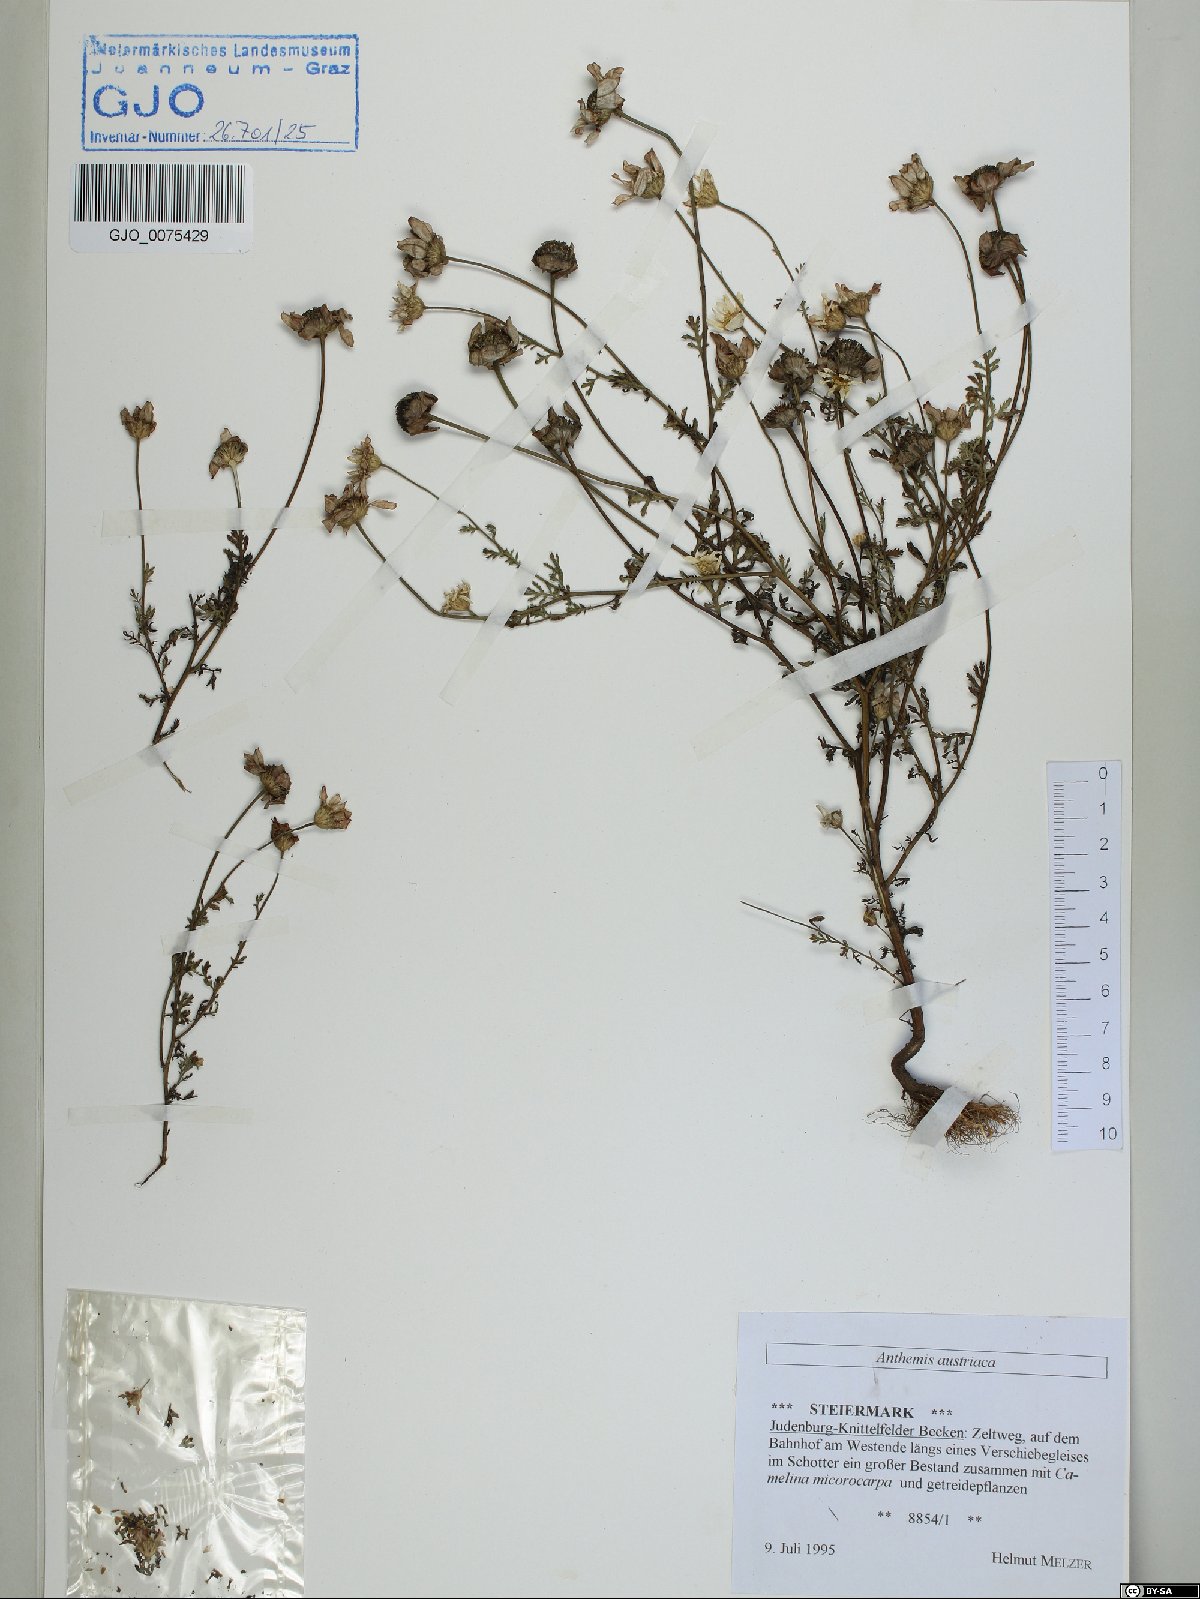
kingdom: Plantae
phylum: Tracheophyta
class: Magnoliopsida
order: Asterales
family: Asteraceae
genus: Cota
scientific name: Cota austriaca
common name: Austrian chamomile
